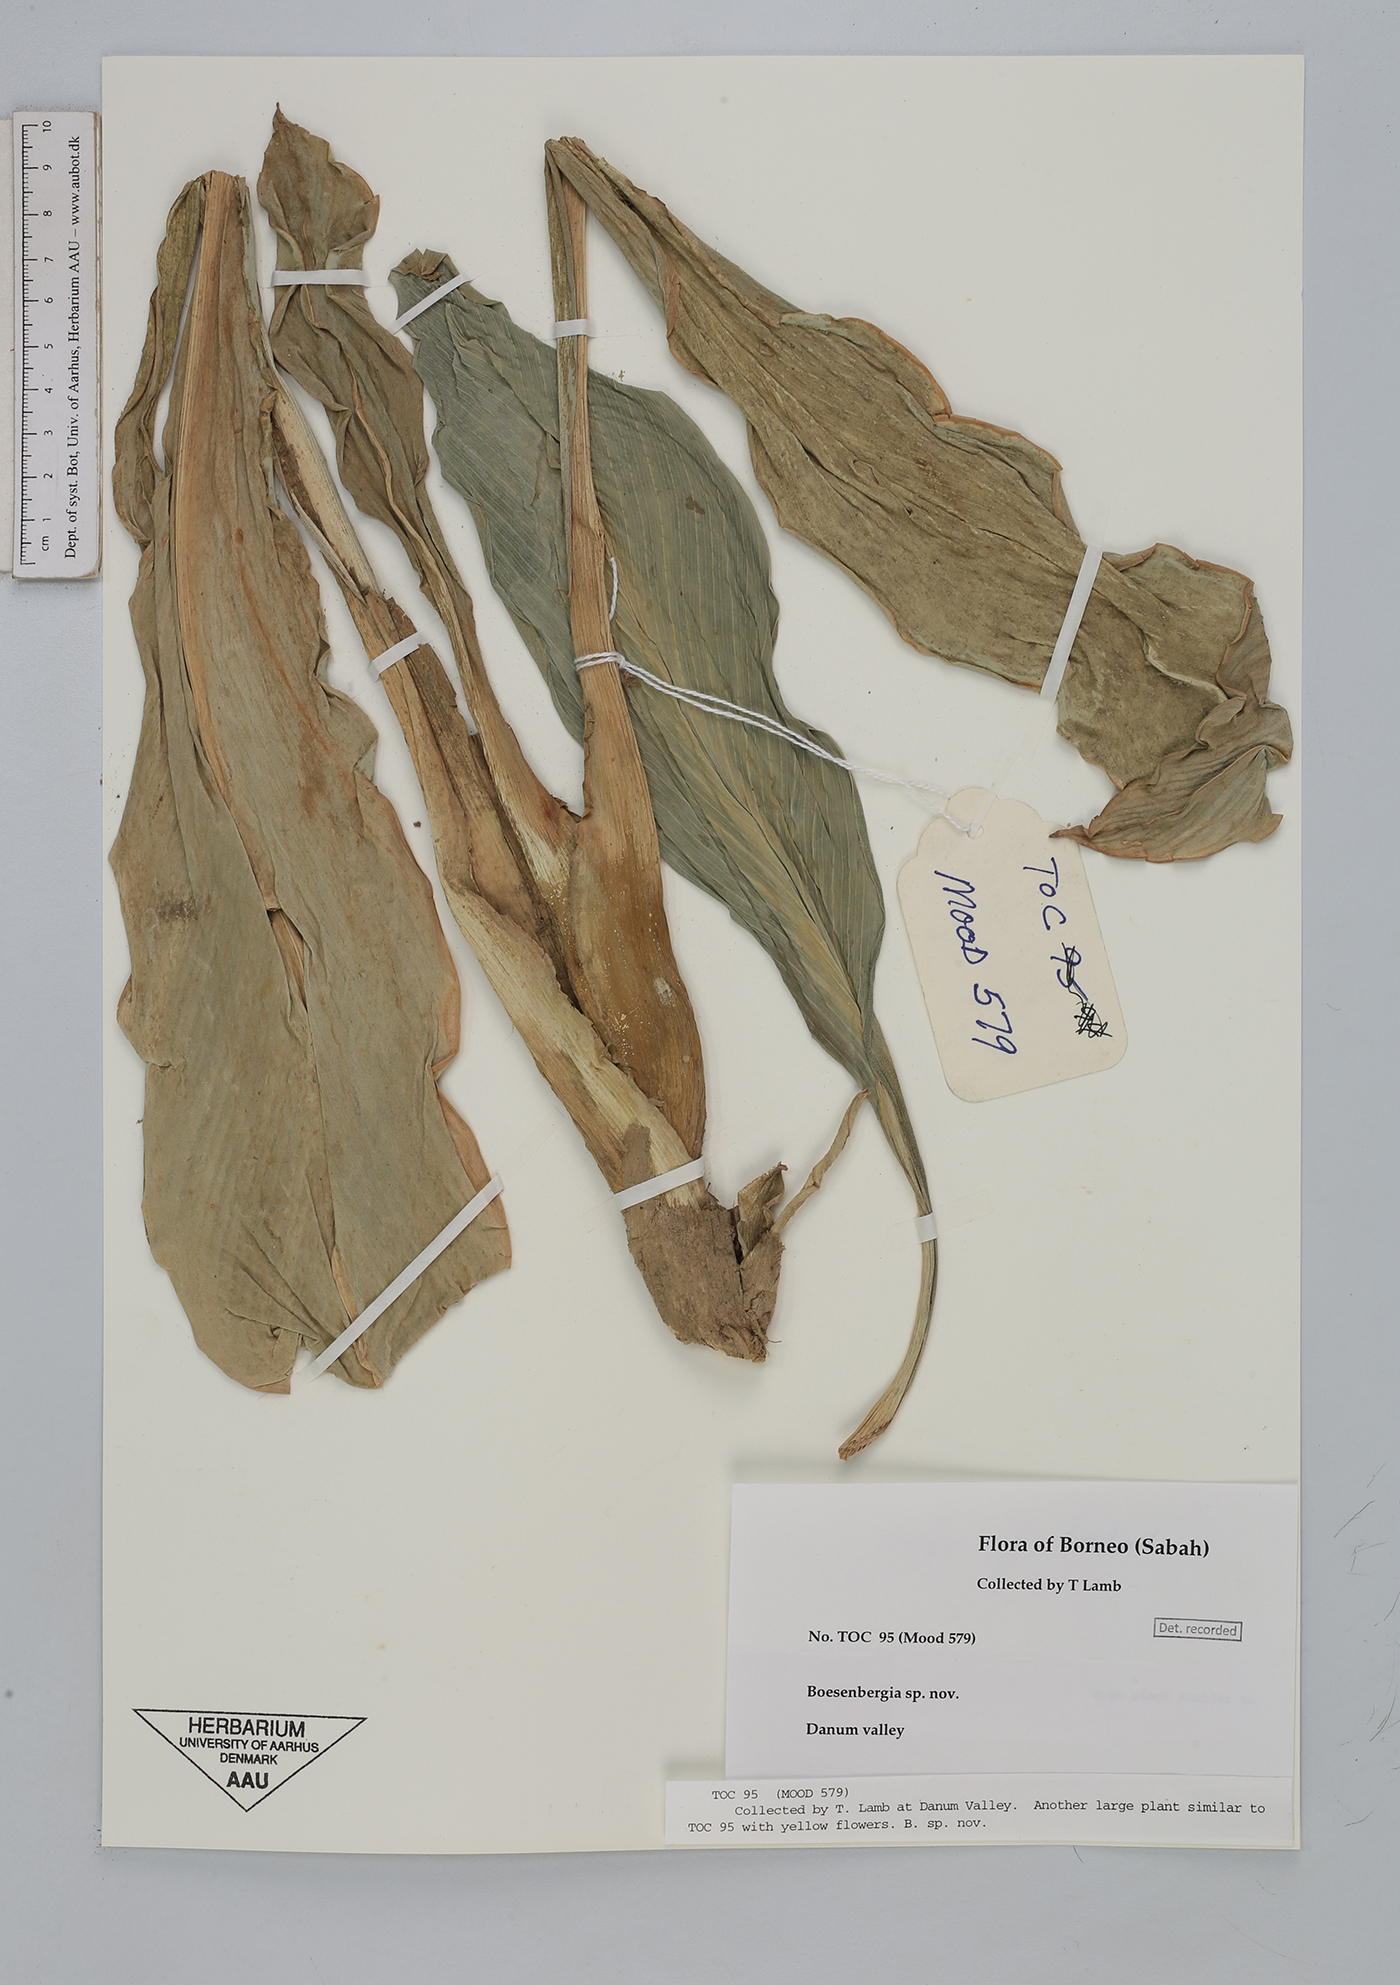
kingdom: Plantae
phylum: Tracheophyta
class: Liliopsida
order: Zingiberales
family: Zingiberaceae
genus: Boesenbergia
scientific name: Boesenbergia
